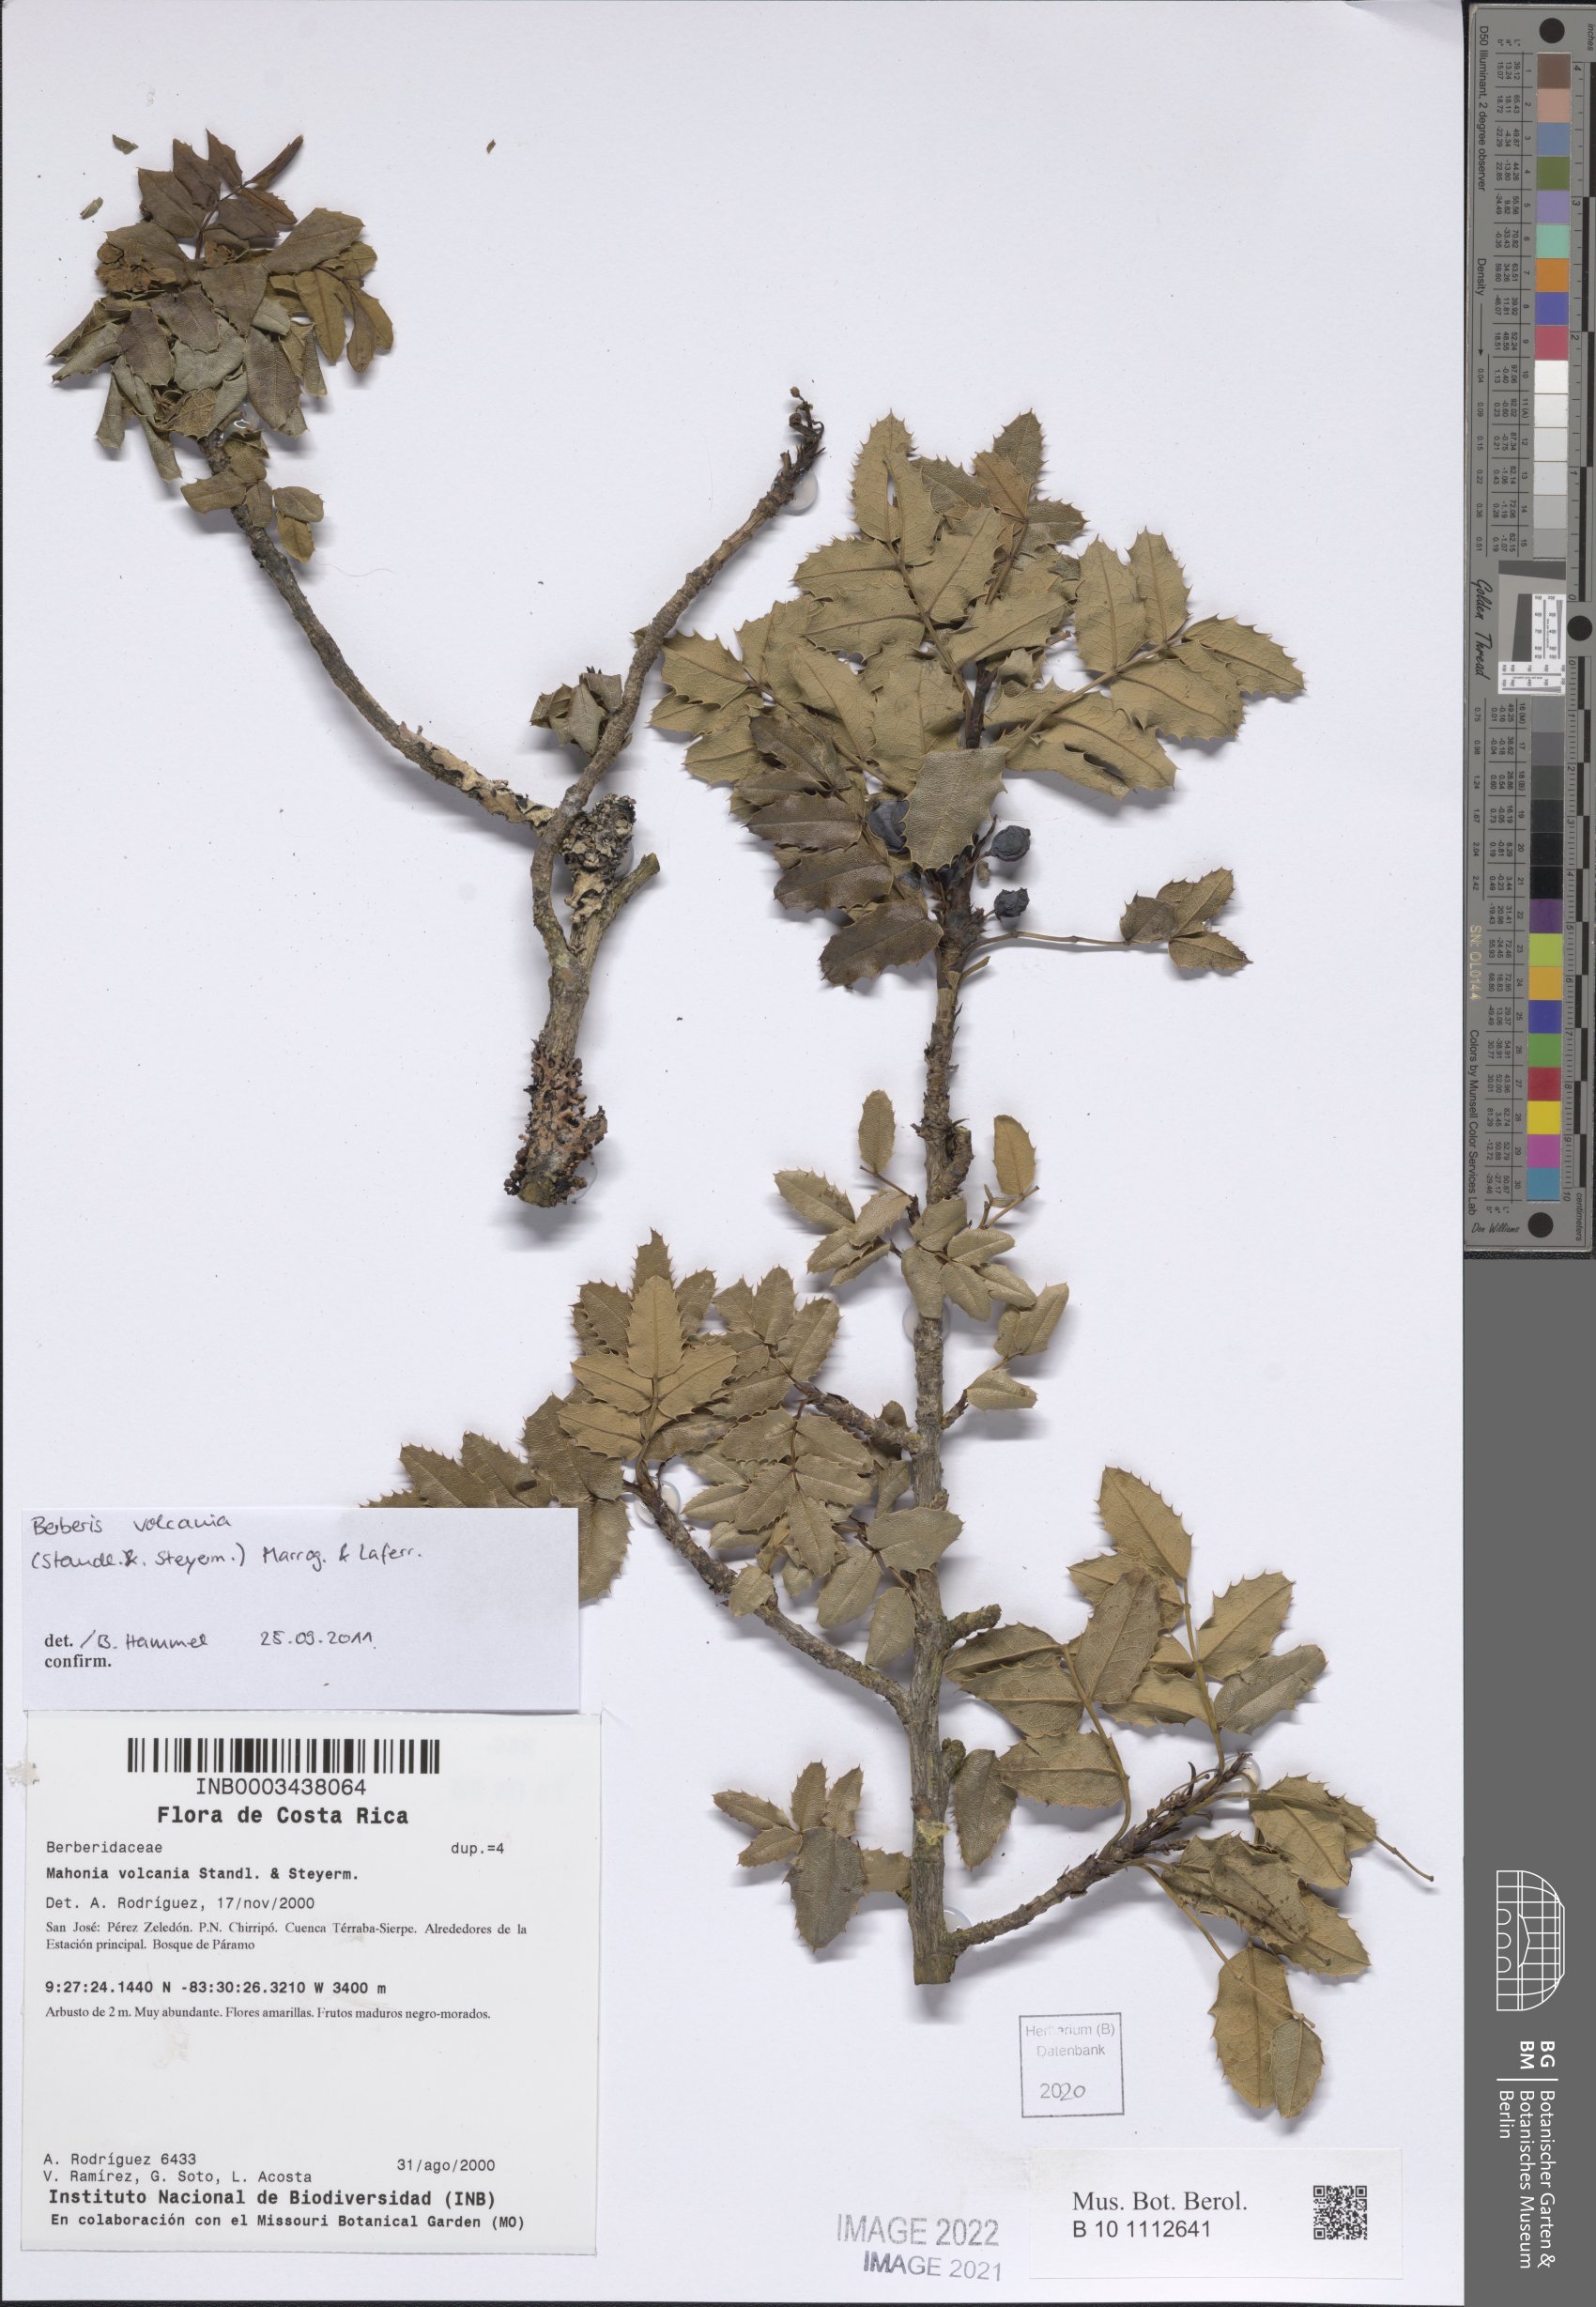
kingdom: Plantae
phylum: Tracheophyta
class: Magnoliopsida
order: Ranunculales
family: Berberidaceae
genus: Mahonia
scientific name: Mahonia volcania
